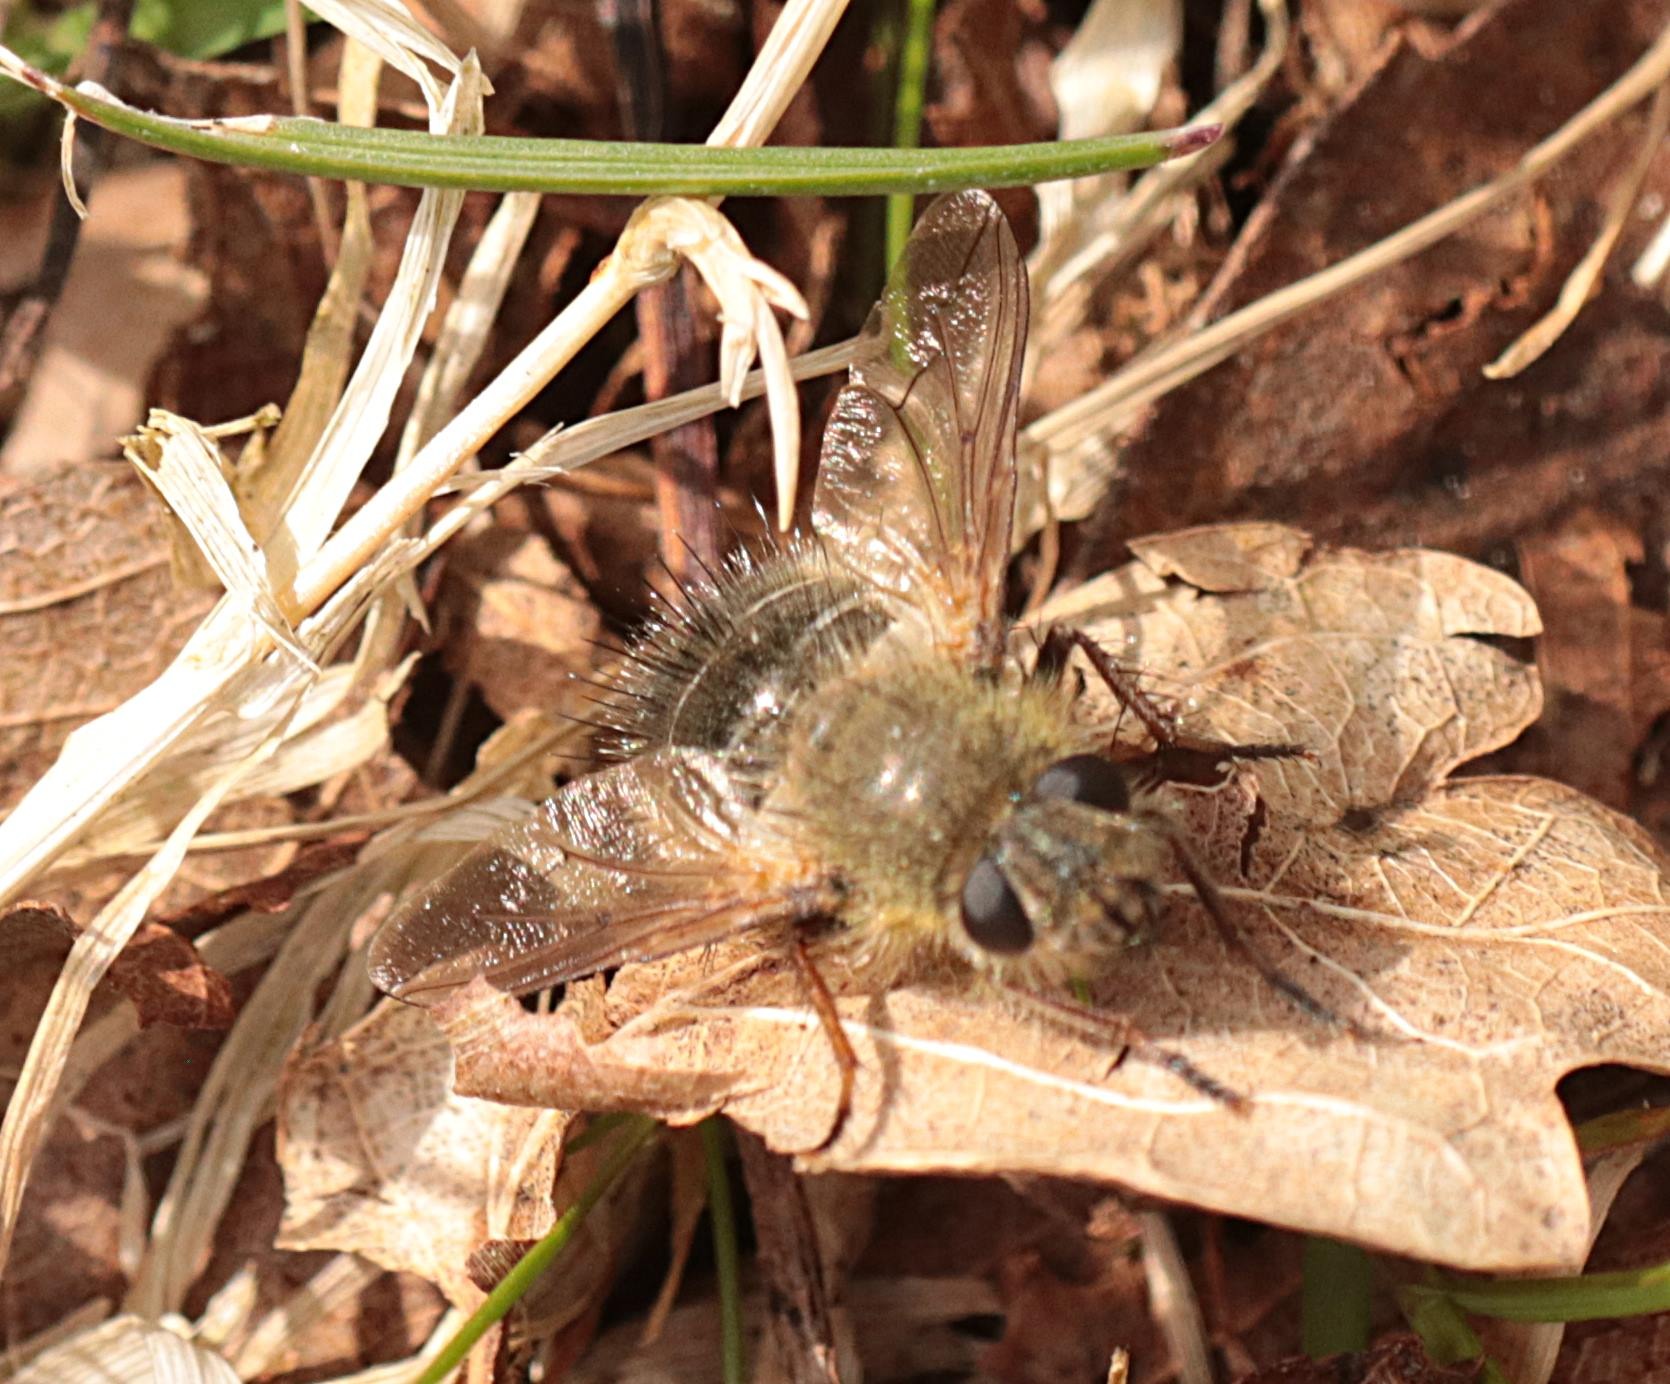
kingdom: Animalia
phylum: Arthropoda
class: Insecta
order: Diptera
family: Tachinidae
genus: Tachina
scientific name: Tachina ursina
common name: Bjørnesnylteflue
